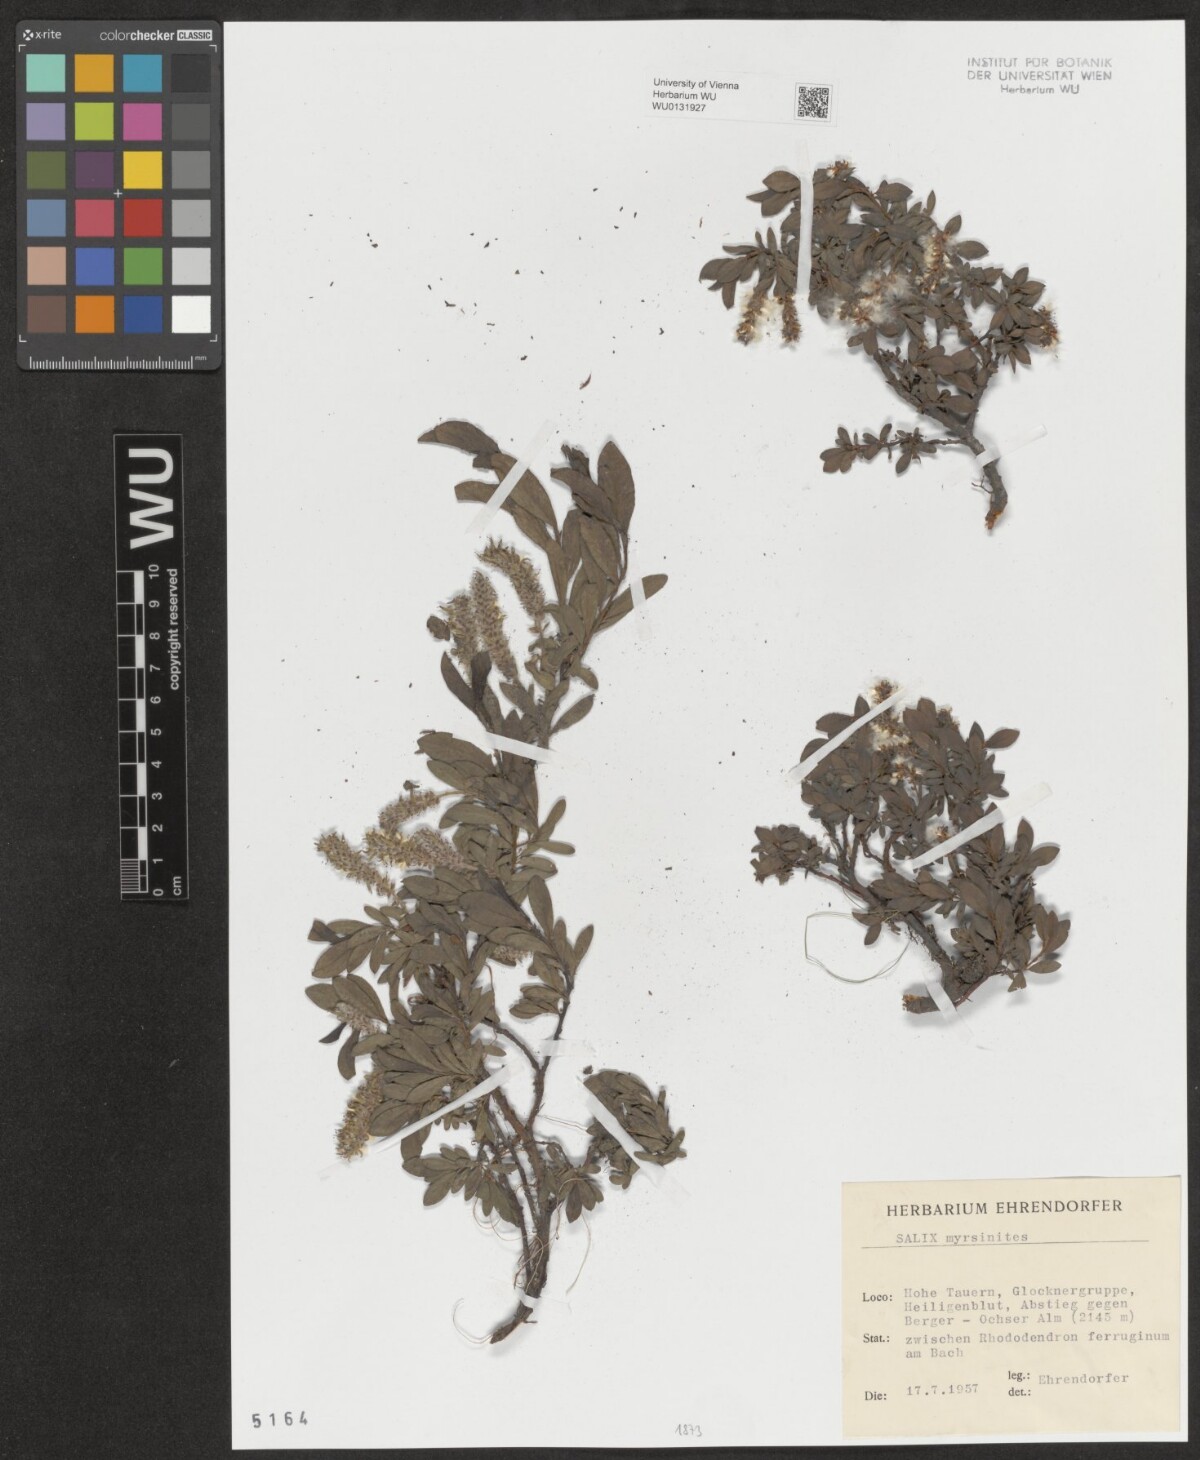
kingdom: Plantae
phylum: Tracheophyta
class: Magnoliopsida
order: Malpighiales
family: Salicaceae
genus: Salix
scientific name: Salix myrsinites
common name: Myrtle willow
